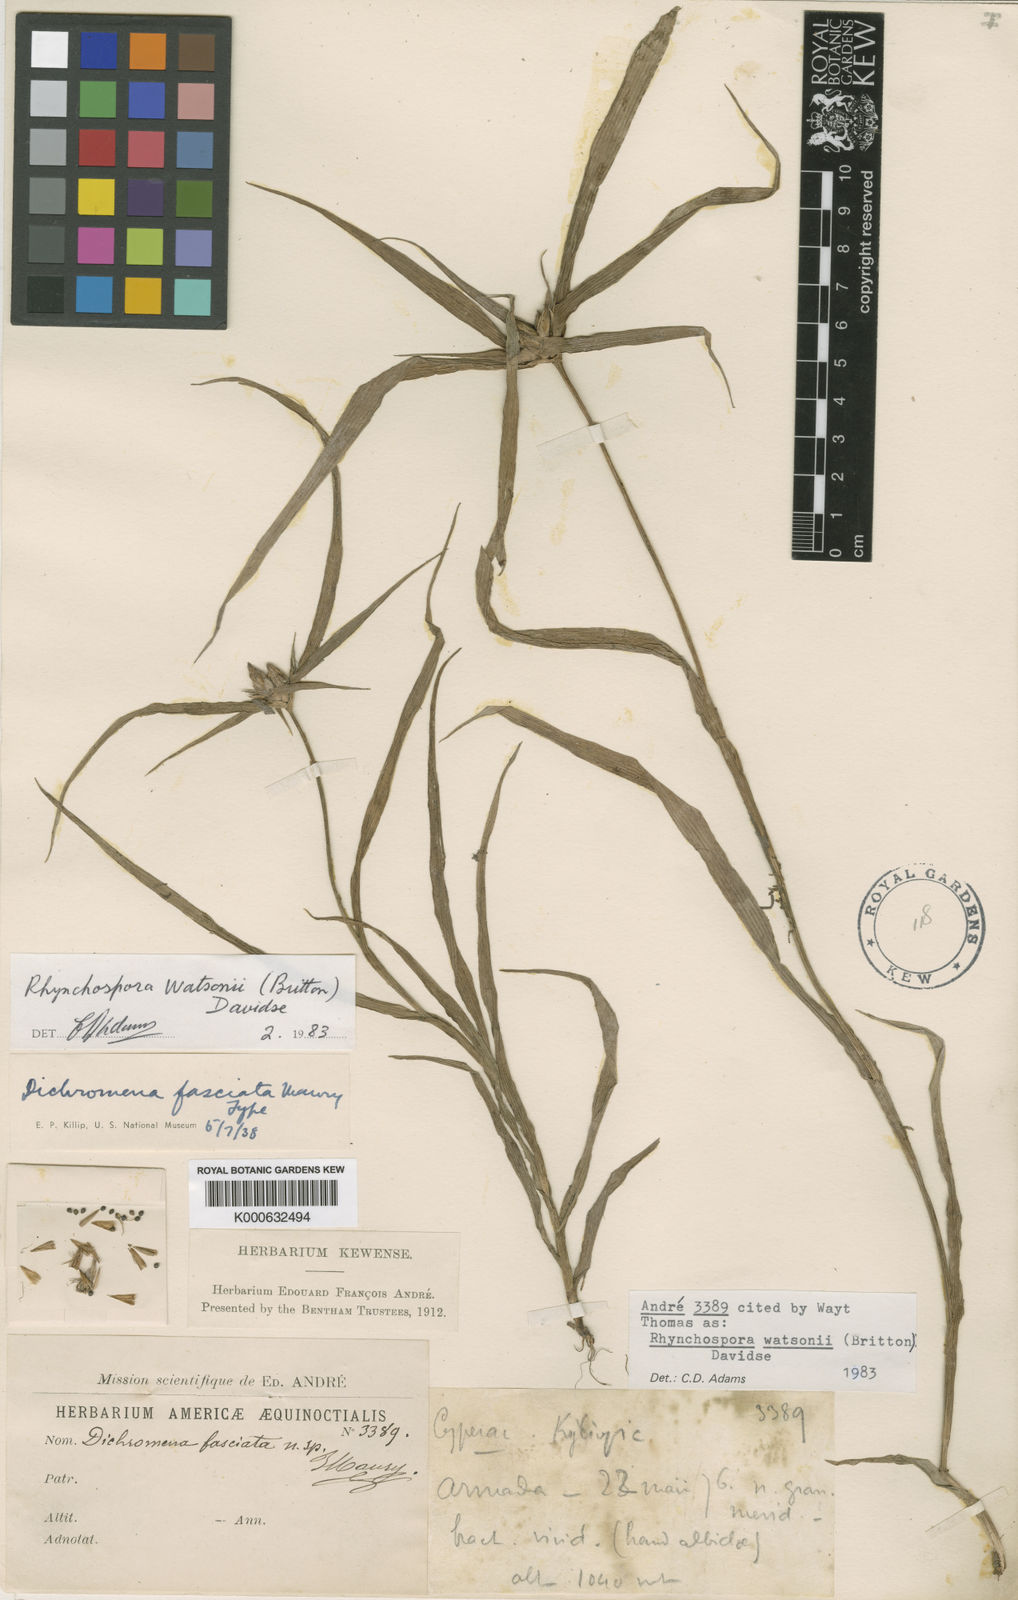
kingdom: Plantae
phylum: Tracheophyta
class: Liliopsida
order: Poales
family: Cyperaceae
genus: Rhynchospora
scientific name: Rhynchospora watsonii
